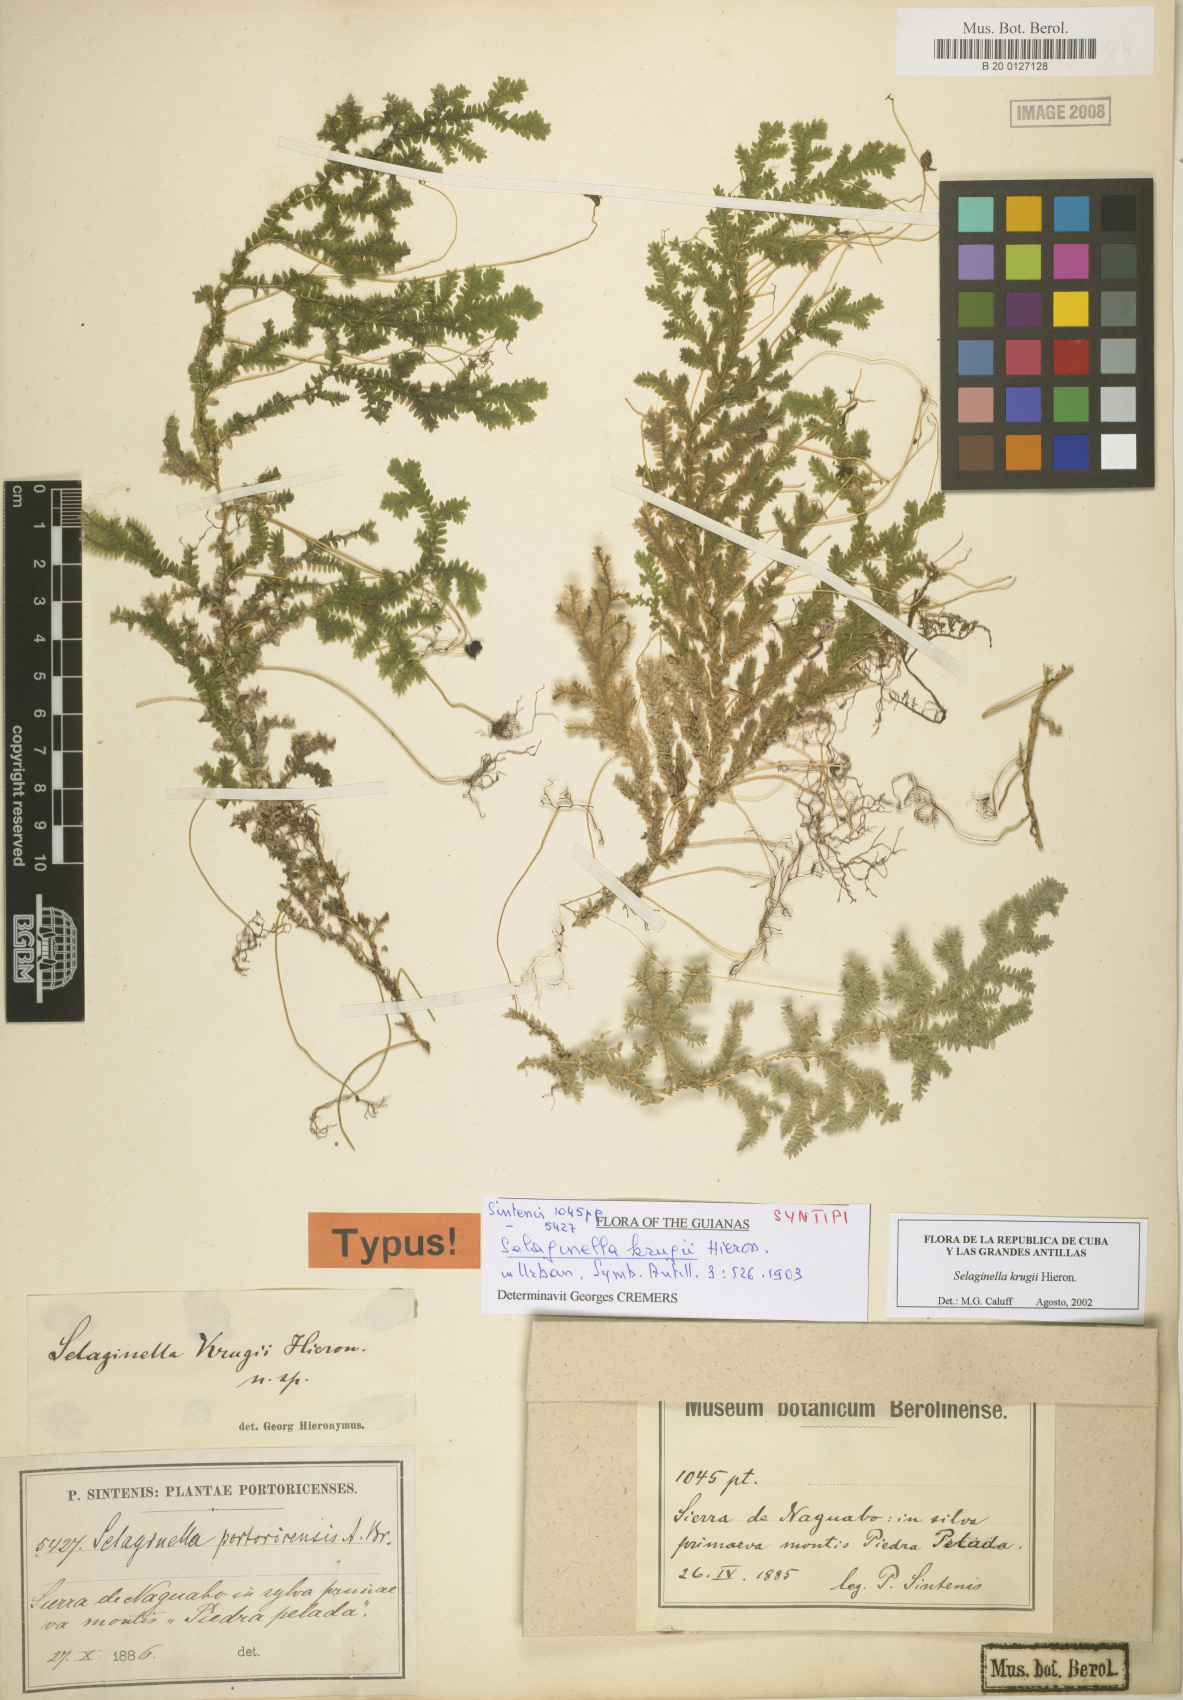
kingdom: Plantae
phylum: Tracheophyta
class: Lycopodiopsida
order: Selaginellales
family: Selaginellaceae
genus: Selaginella
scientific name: Selaginella krugii
